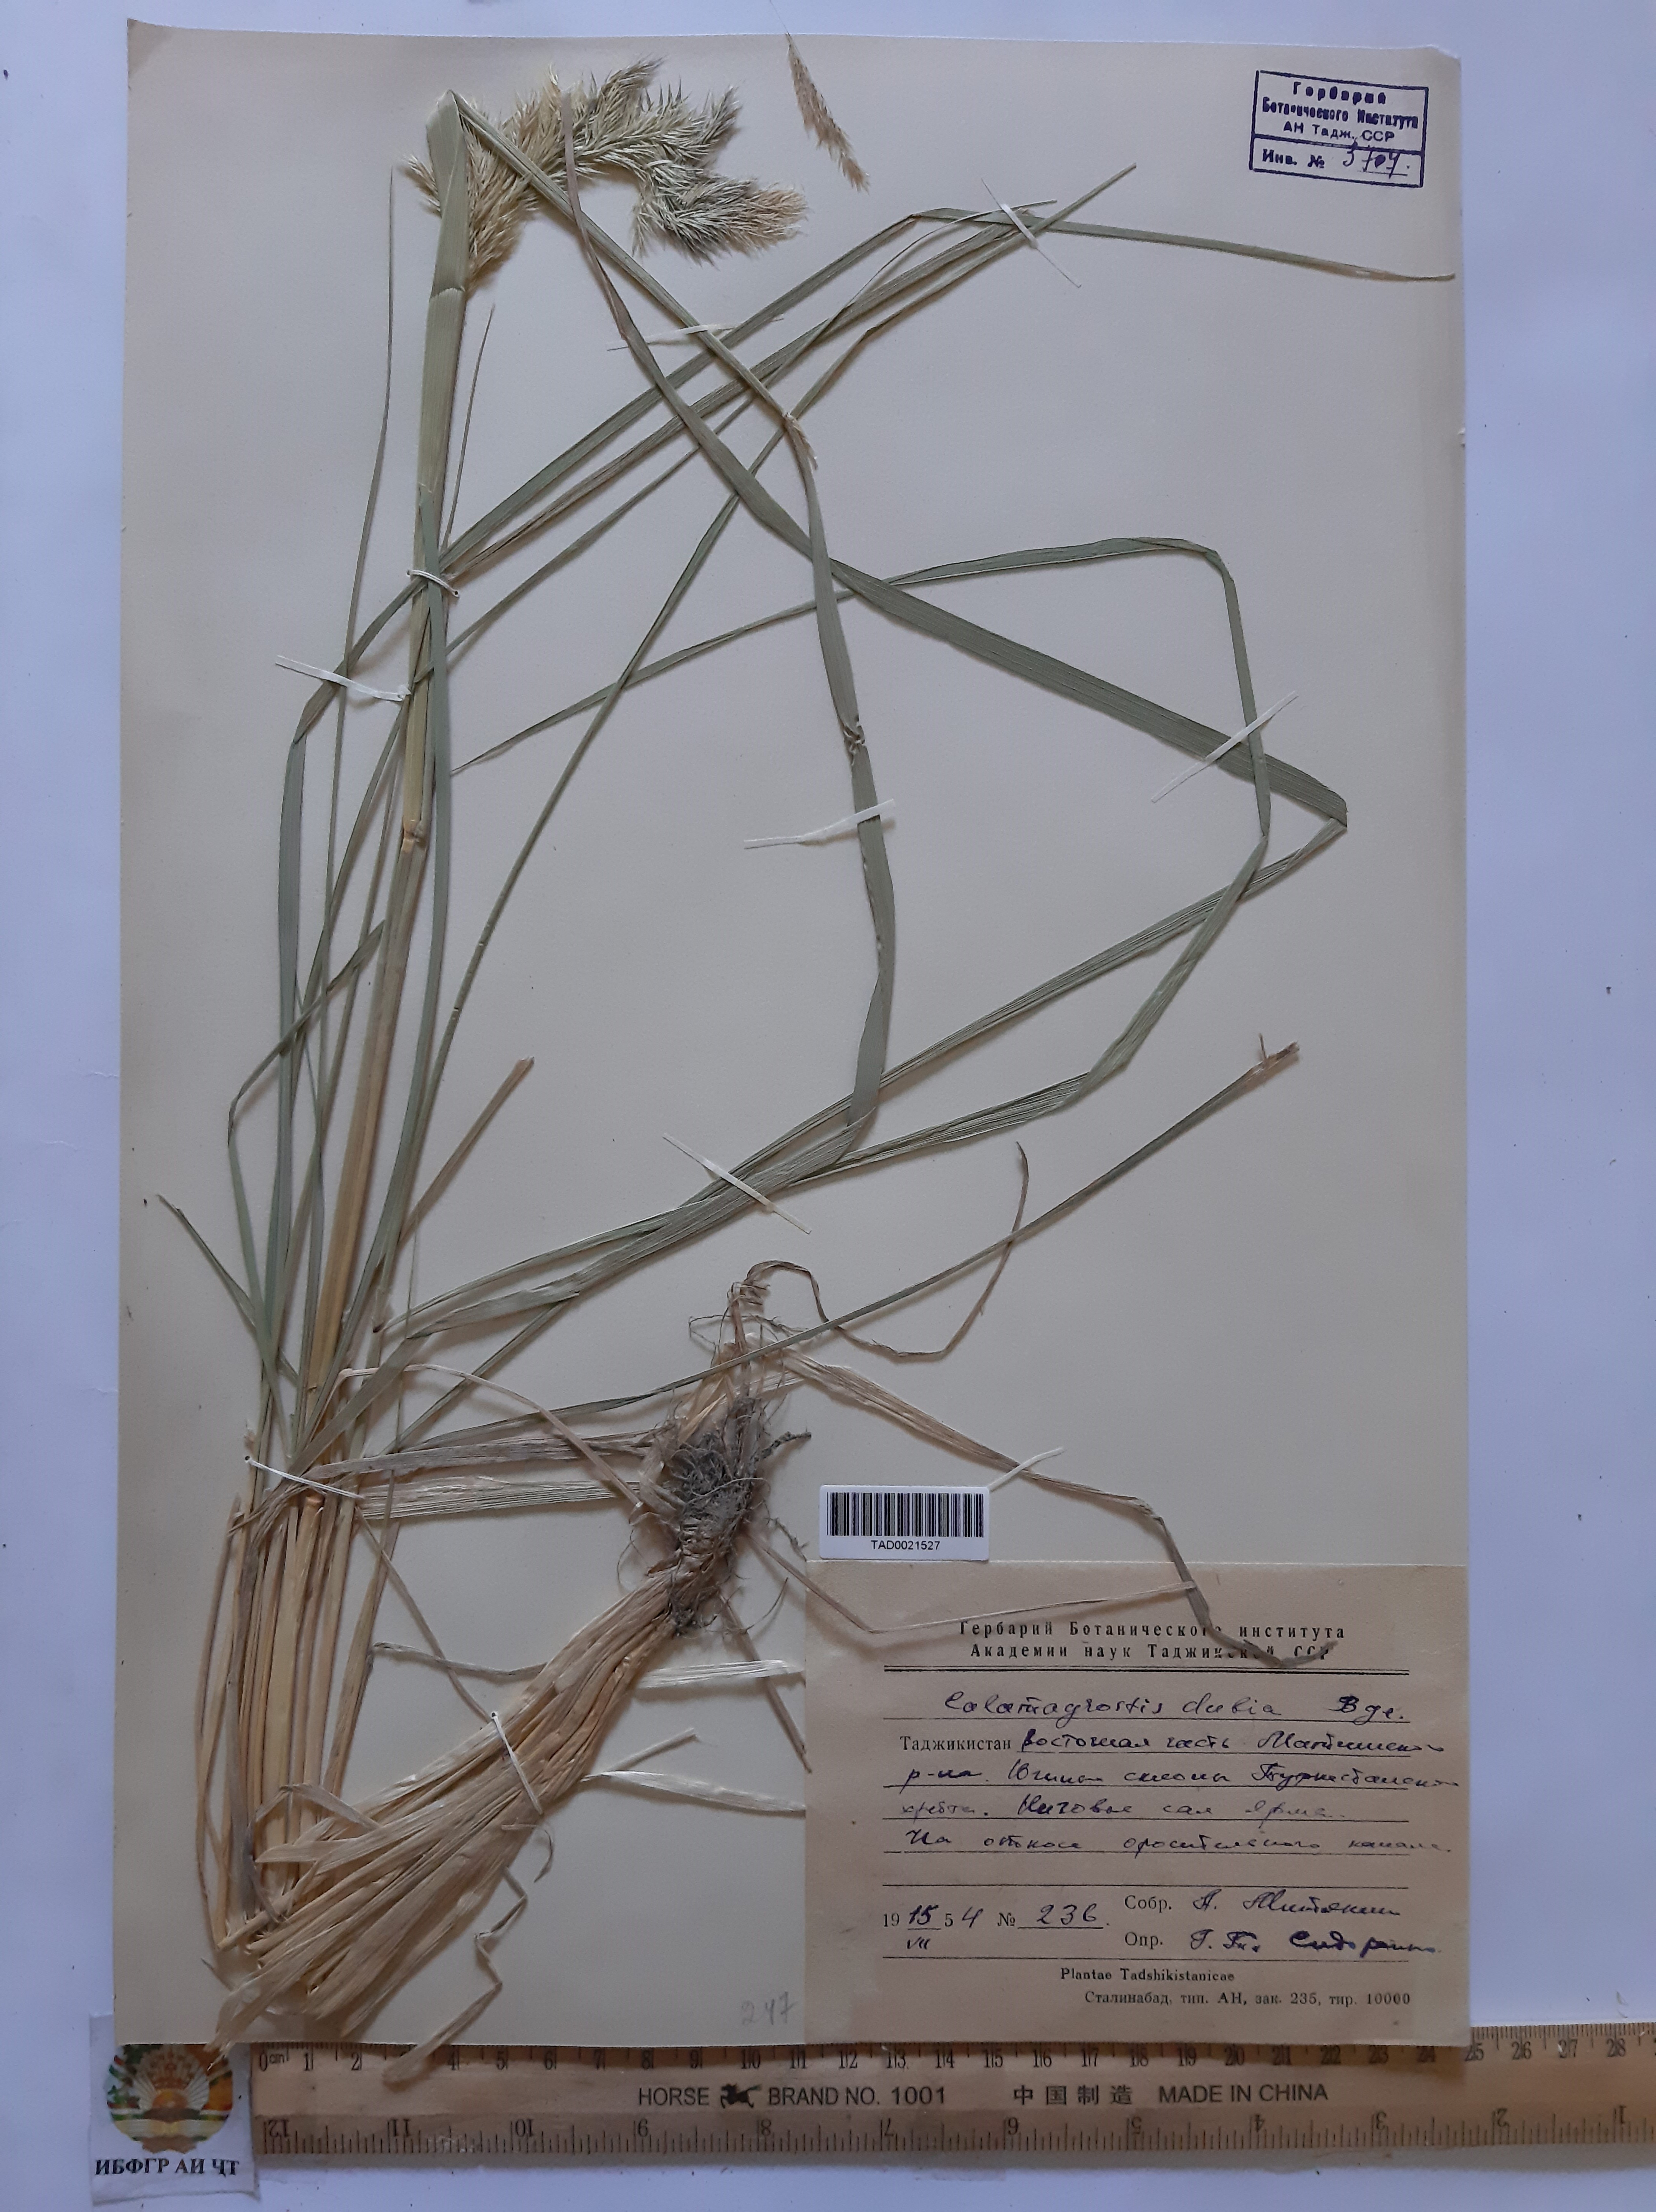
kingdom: Plantae
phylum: Tracheophyta
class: Liliopsida
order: Poales
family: Poaceae
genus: Calamagrostis
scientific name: Calamagrostis pseudophragmites
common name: Coastal small-reed
